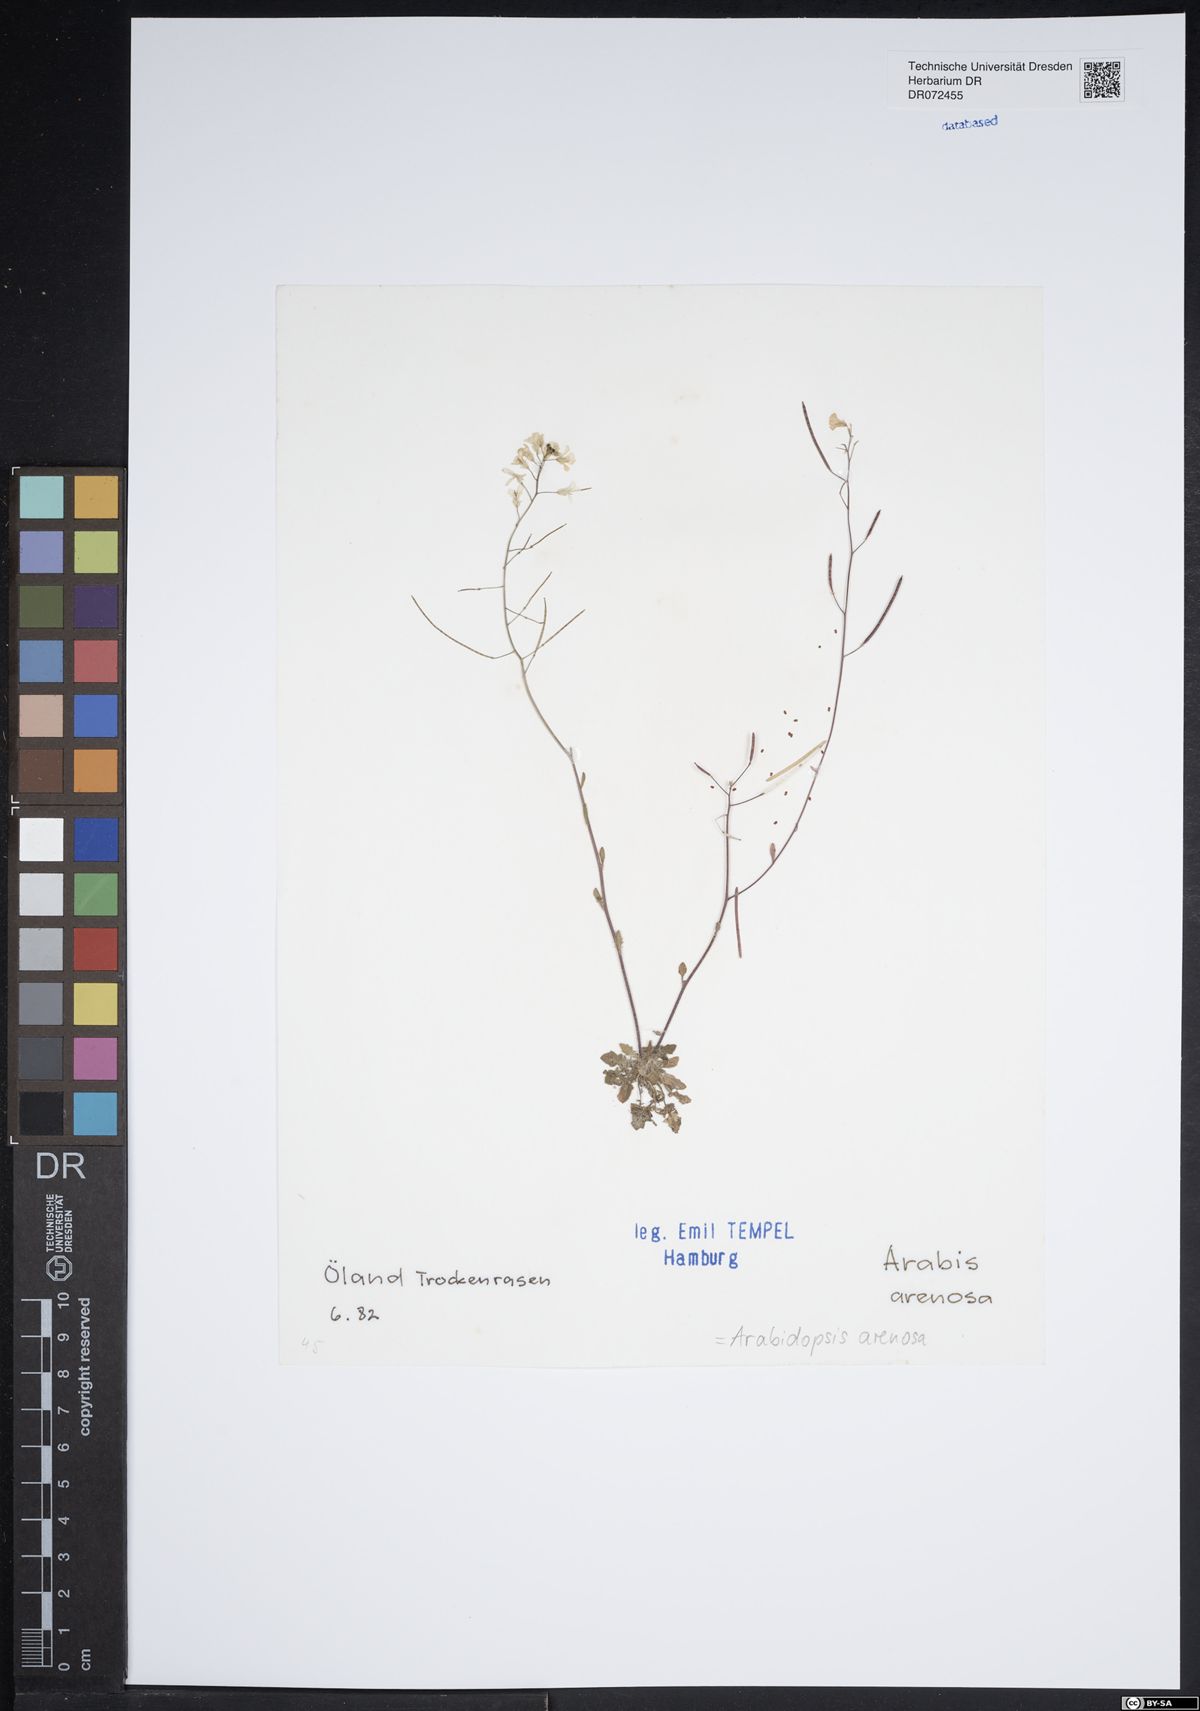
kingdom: Plantae
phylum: Tracheophyta
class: Magnoliopsida
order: Brassicales
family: Brassicaceae
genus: Arabidopsis
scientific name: Arabidopsis arenosa
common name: Sand rock-cress
